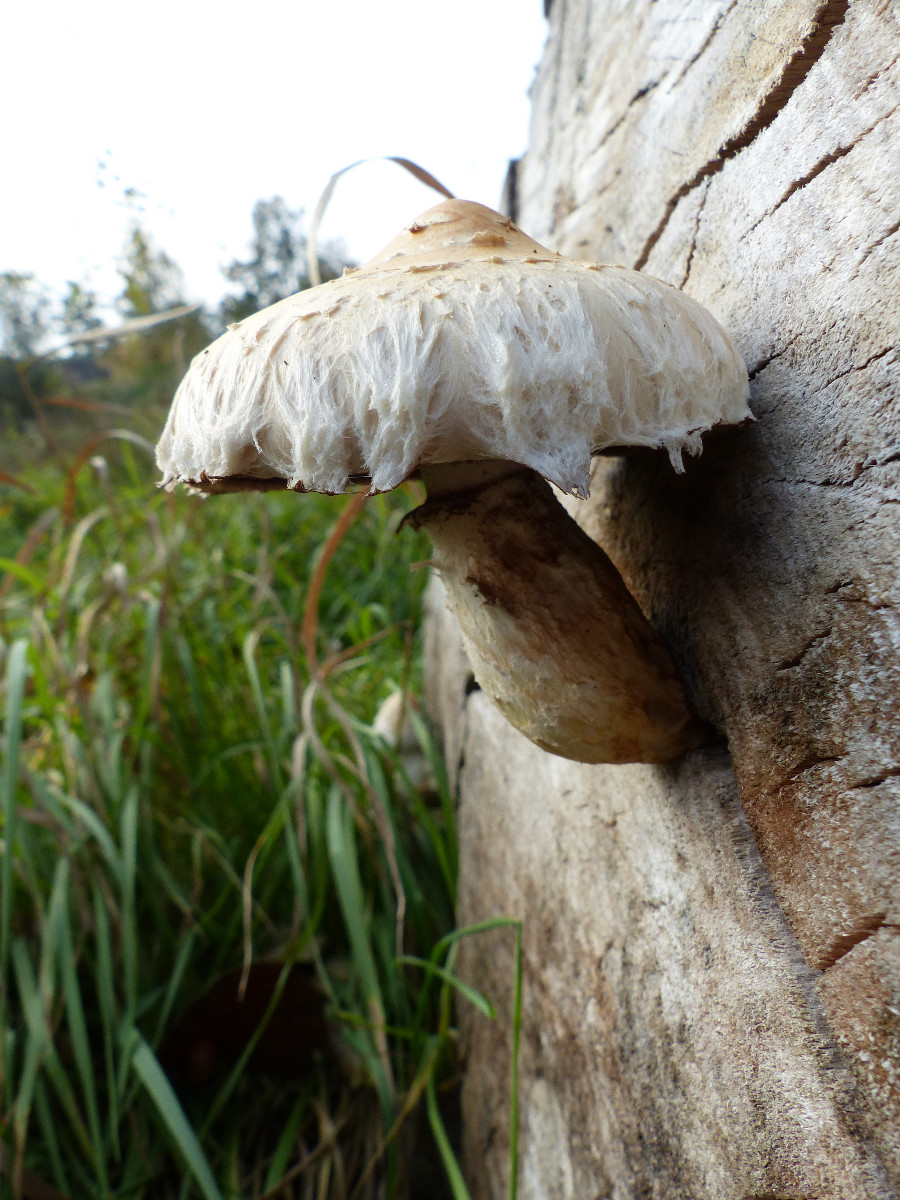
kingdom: Fungi
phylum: Basidiomycota
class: Agaricomycetes
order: Agaricales
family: Strophariaceae
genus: Pholiota
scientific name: Pholiota populnea
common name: poppel-kæmpeskælhat
